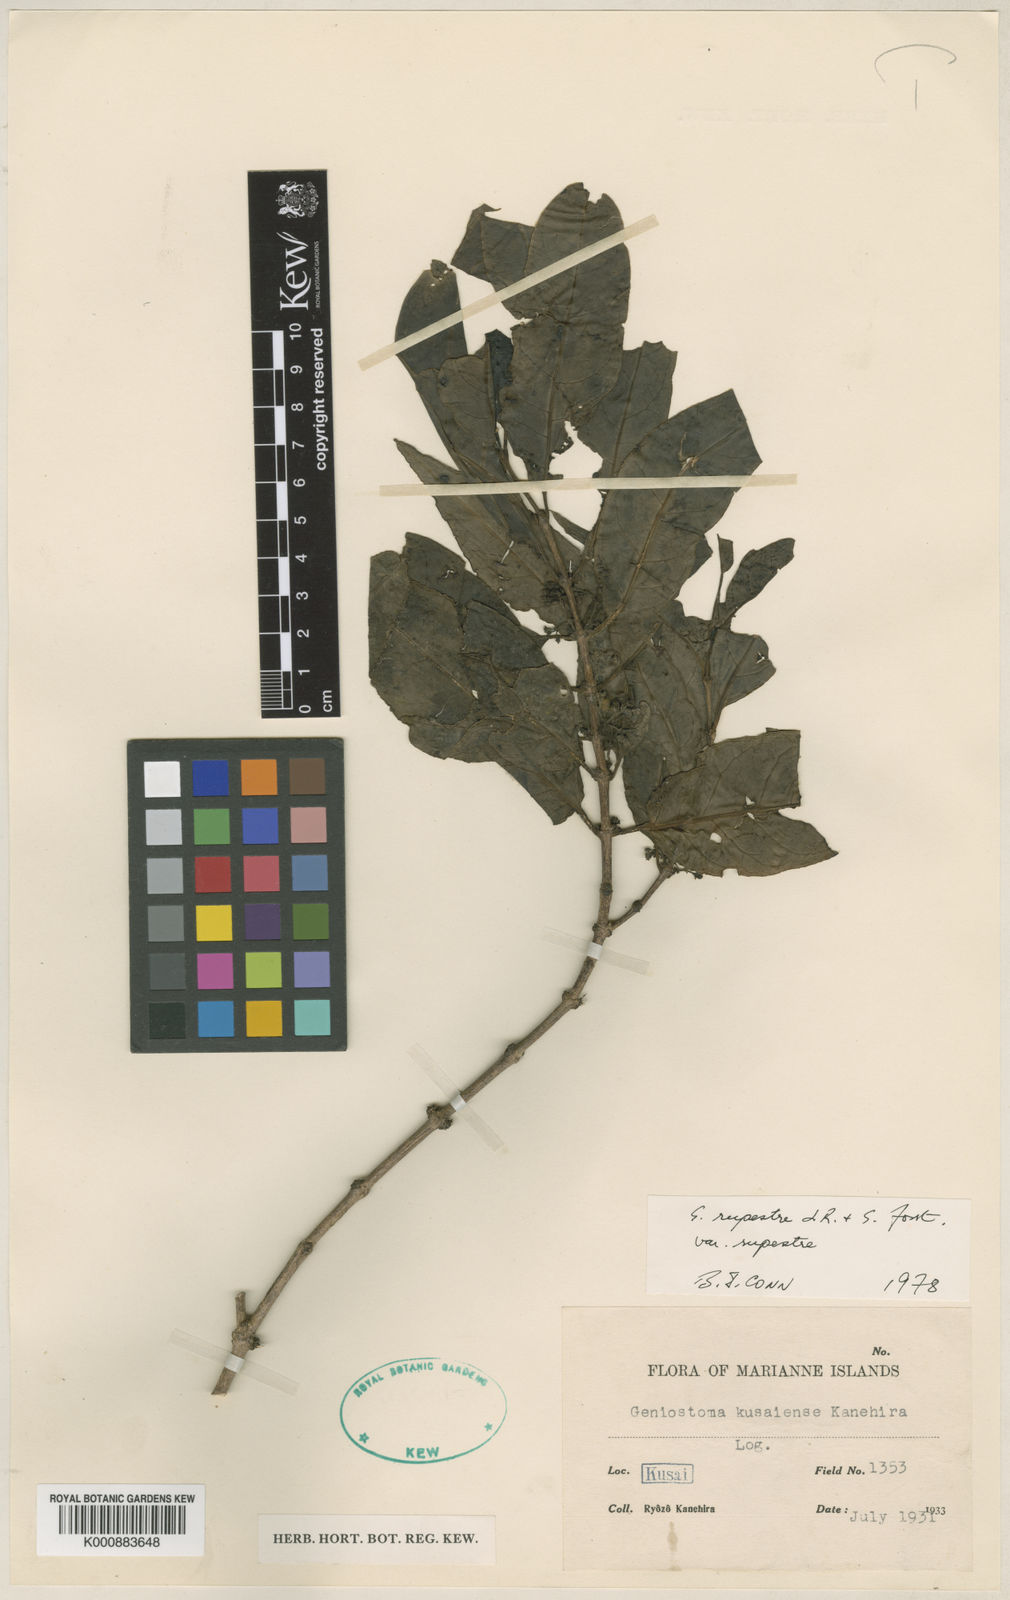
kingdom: Plantae
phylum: Tracheophyta
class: Magnoliopsida
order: Gentianales
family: Loganiaceae
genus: Geniostoma
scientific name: Geniostoma rupestre
